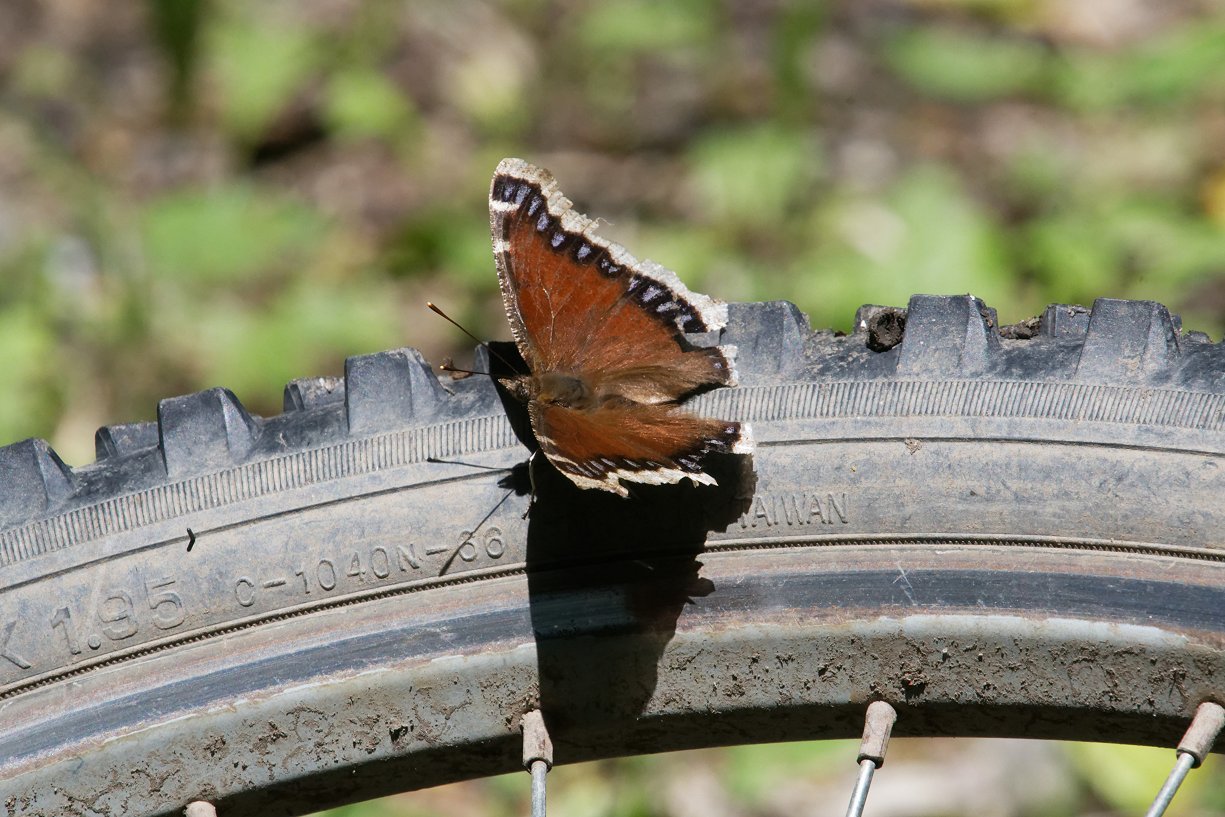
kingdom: Animalia
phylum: Arthropoda
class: Insecta
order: Lepidoptera
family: Nymphalidae
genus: Nymphalis
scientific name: Nymphalis antiopa
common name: Mourning Cloak
